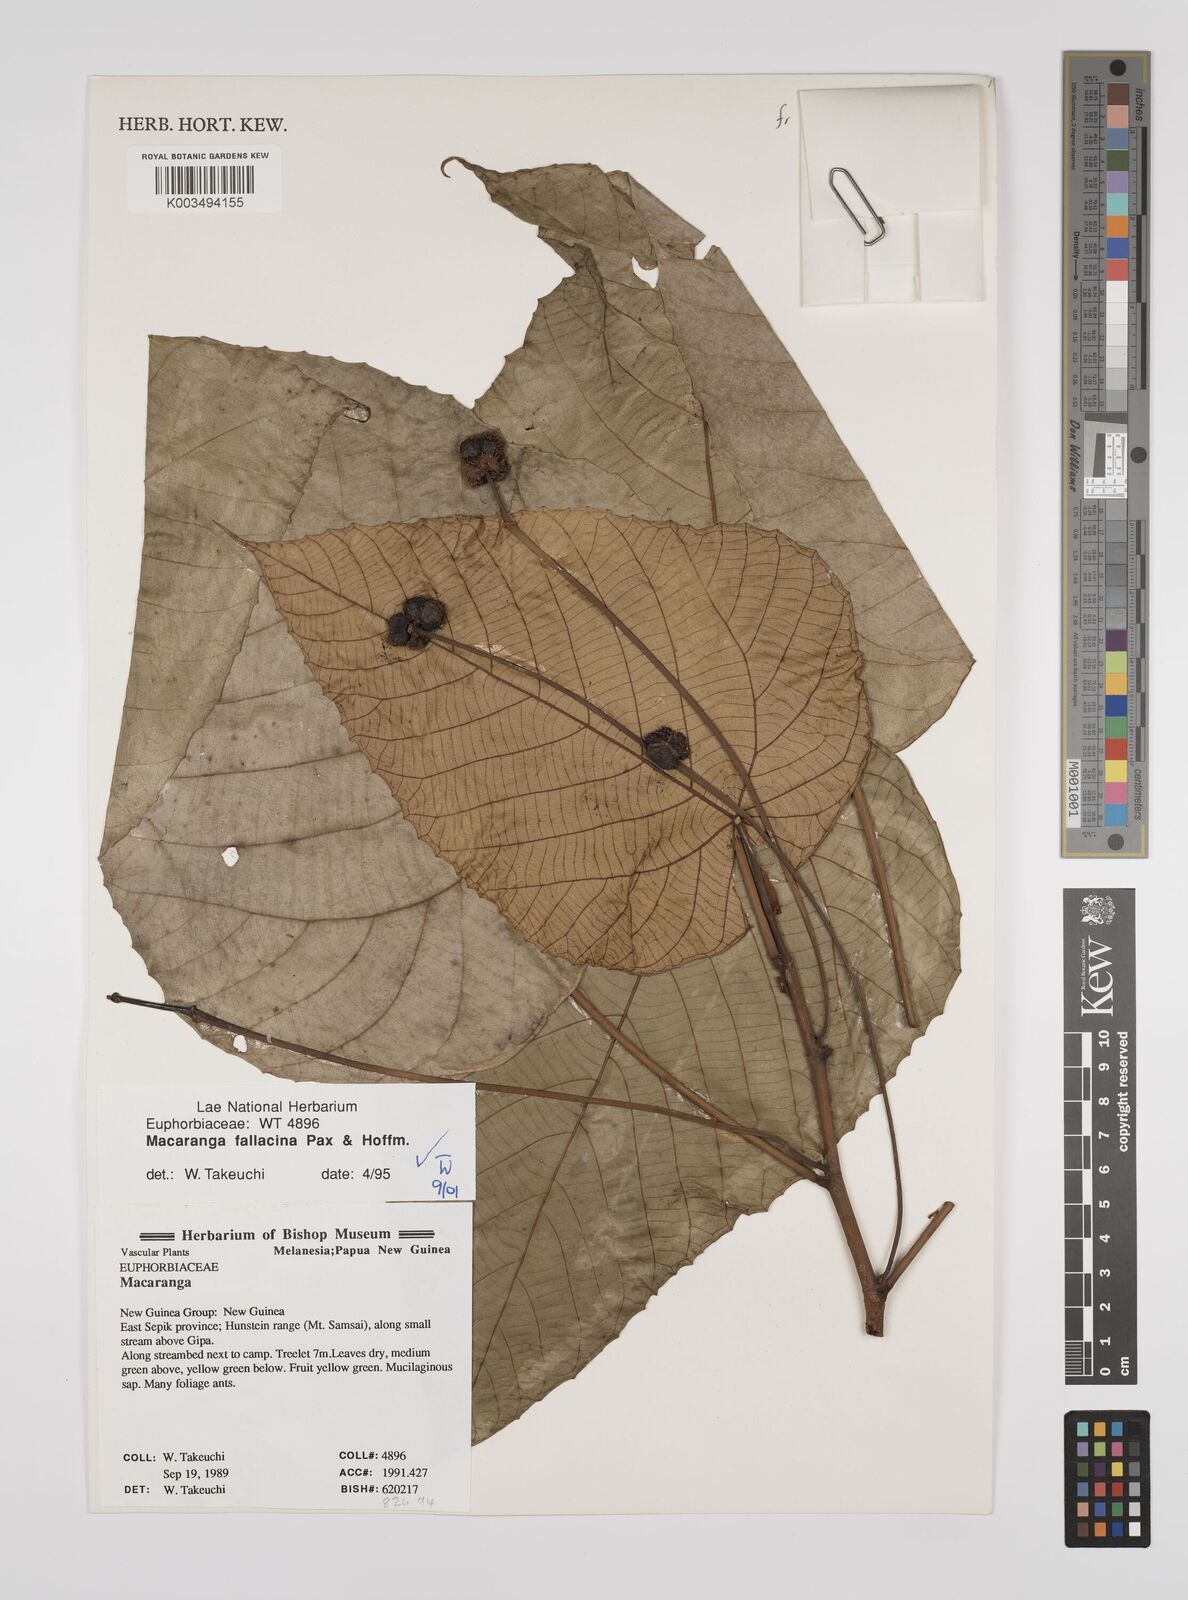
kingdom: Plantae
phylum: Tracheophyta
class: Magnoliopsida
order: Malpighiales
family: Euphorbiaceae
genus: Macaranga
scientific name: Macaranga fallacina
